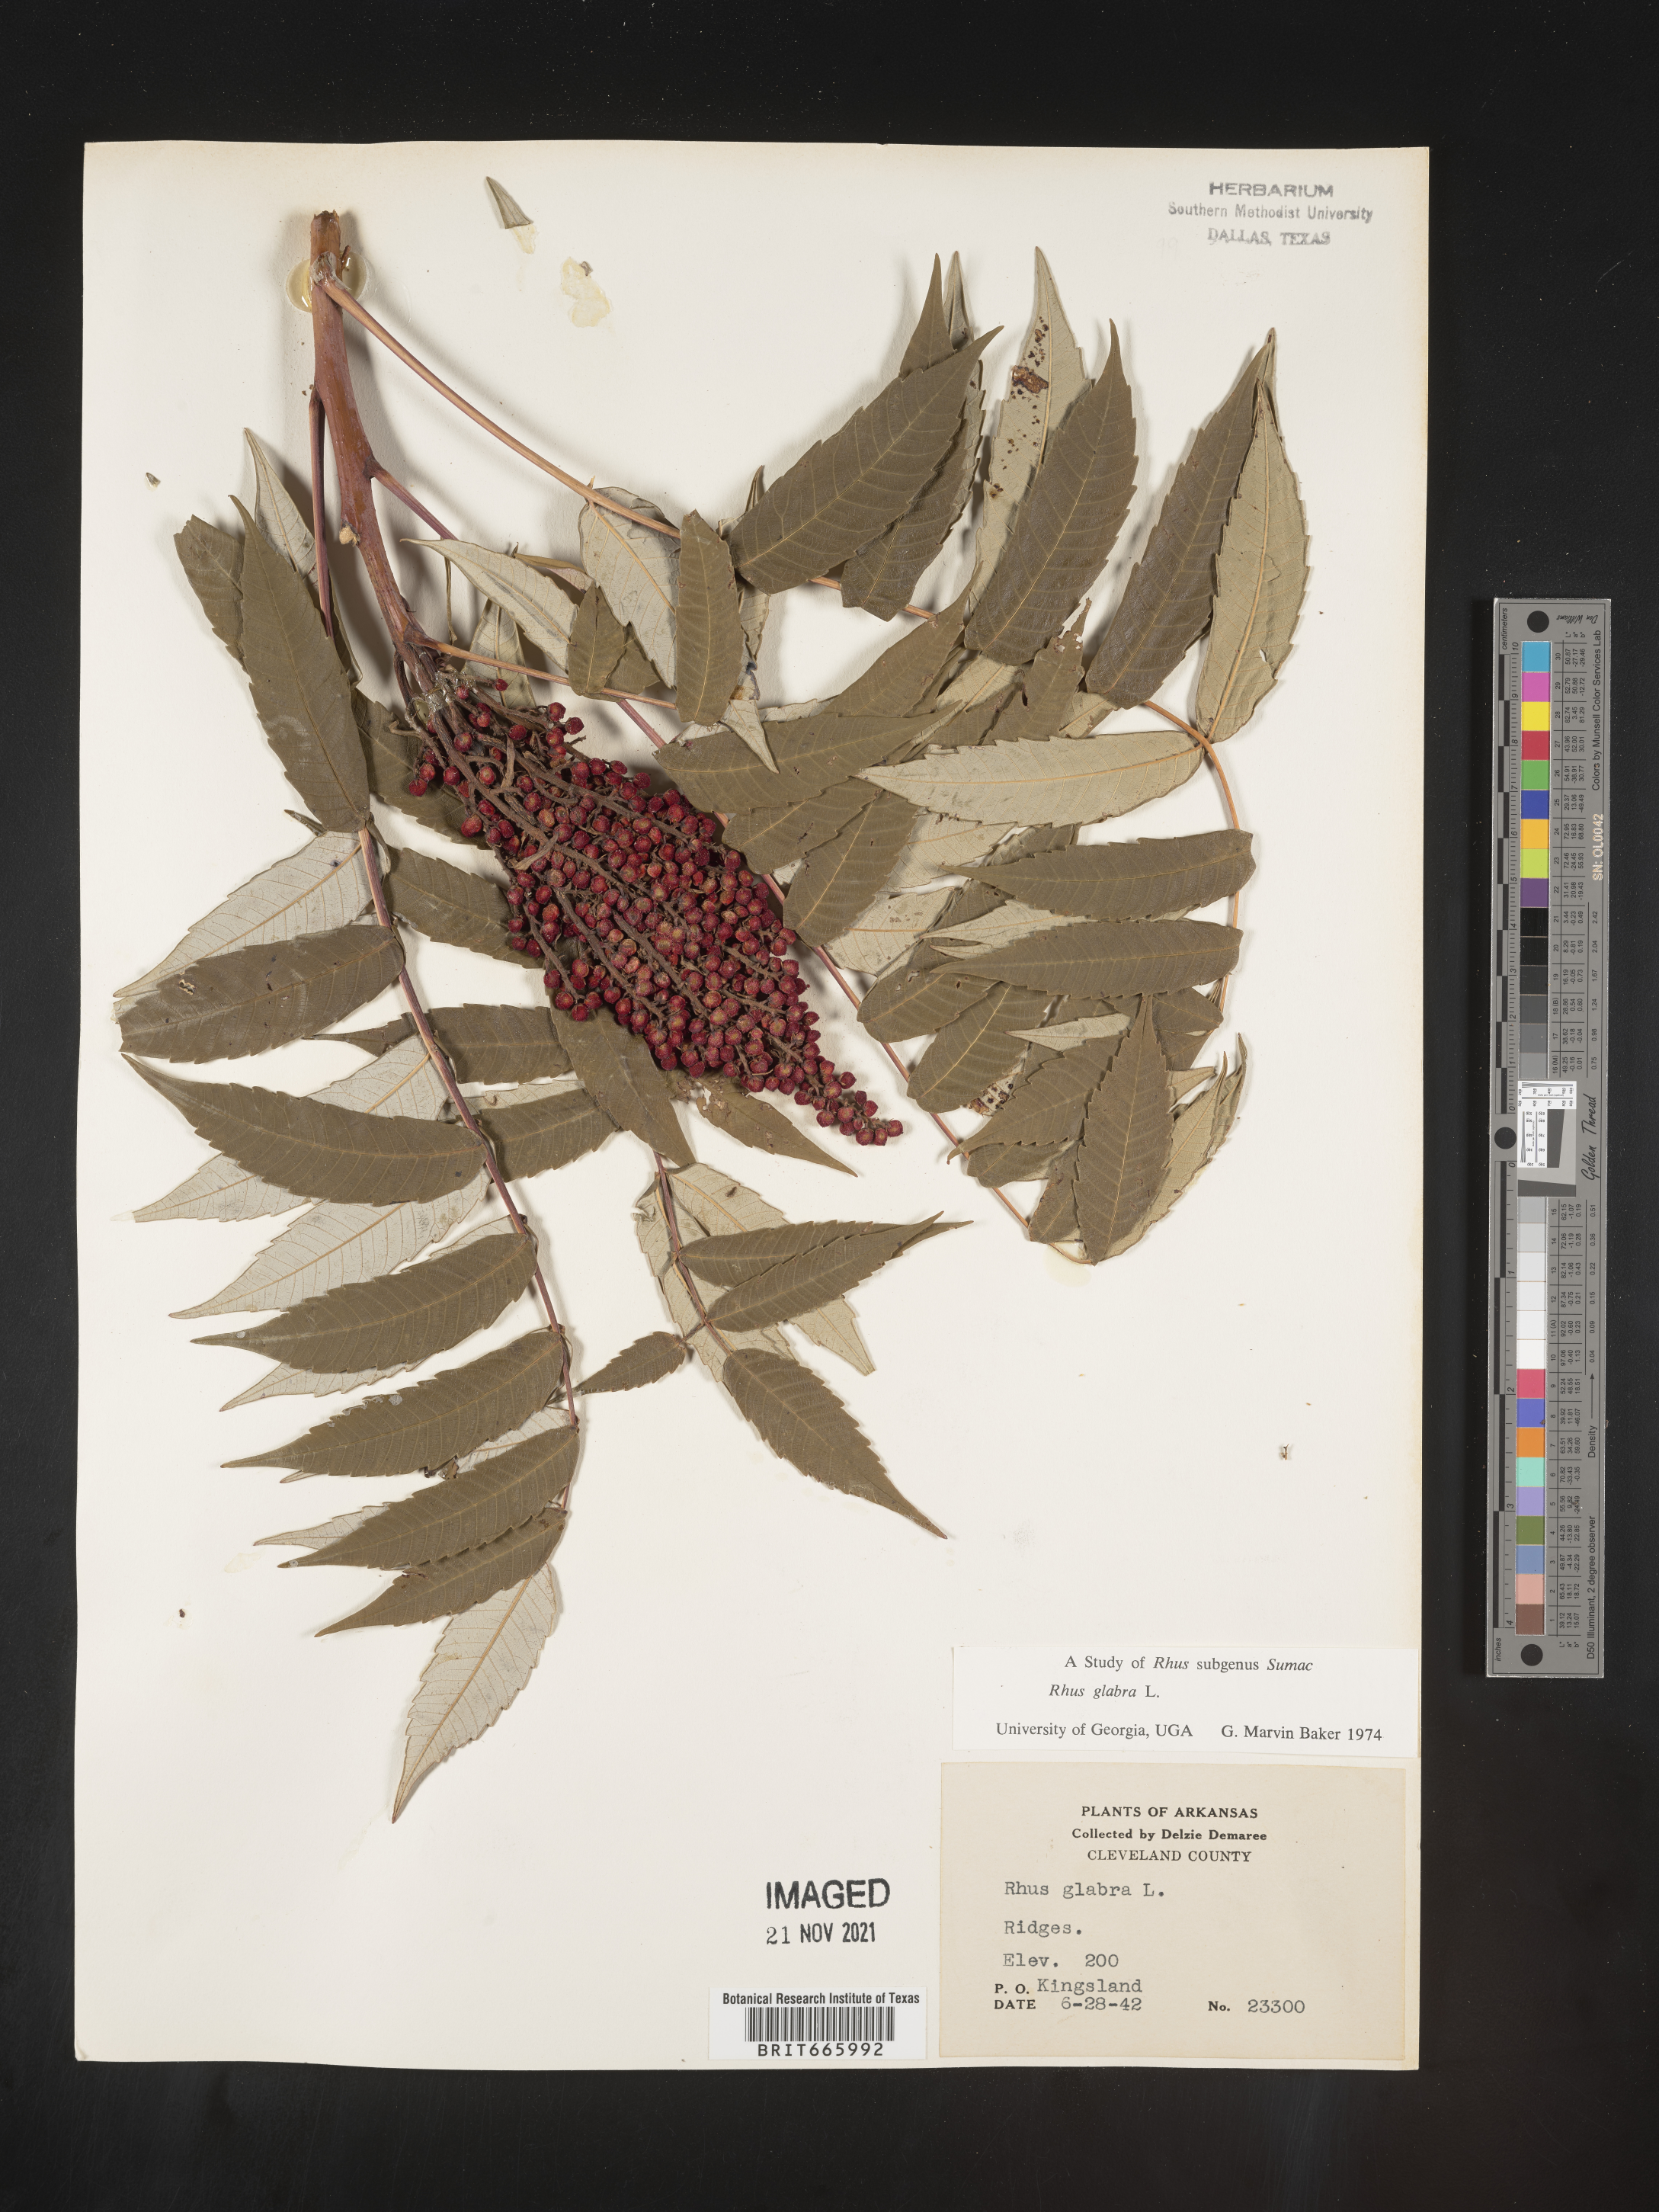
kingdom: Plantae
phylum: Tracheophyta
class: Magnoliopsida
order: Sapindales
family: Anacardiaceae
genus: Rhus
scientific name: Rhus glabra
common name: Scarlet sumac
